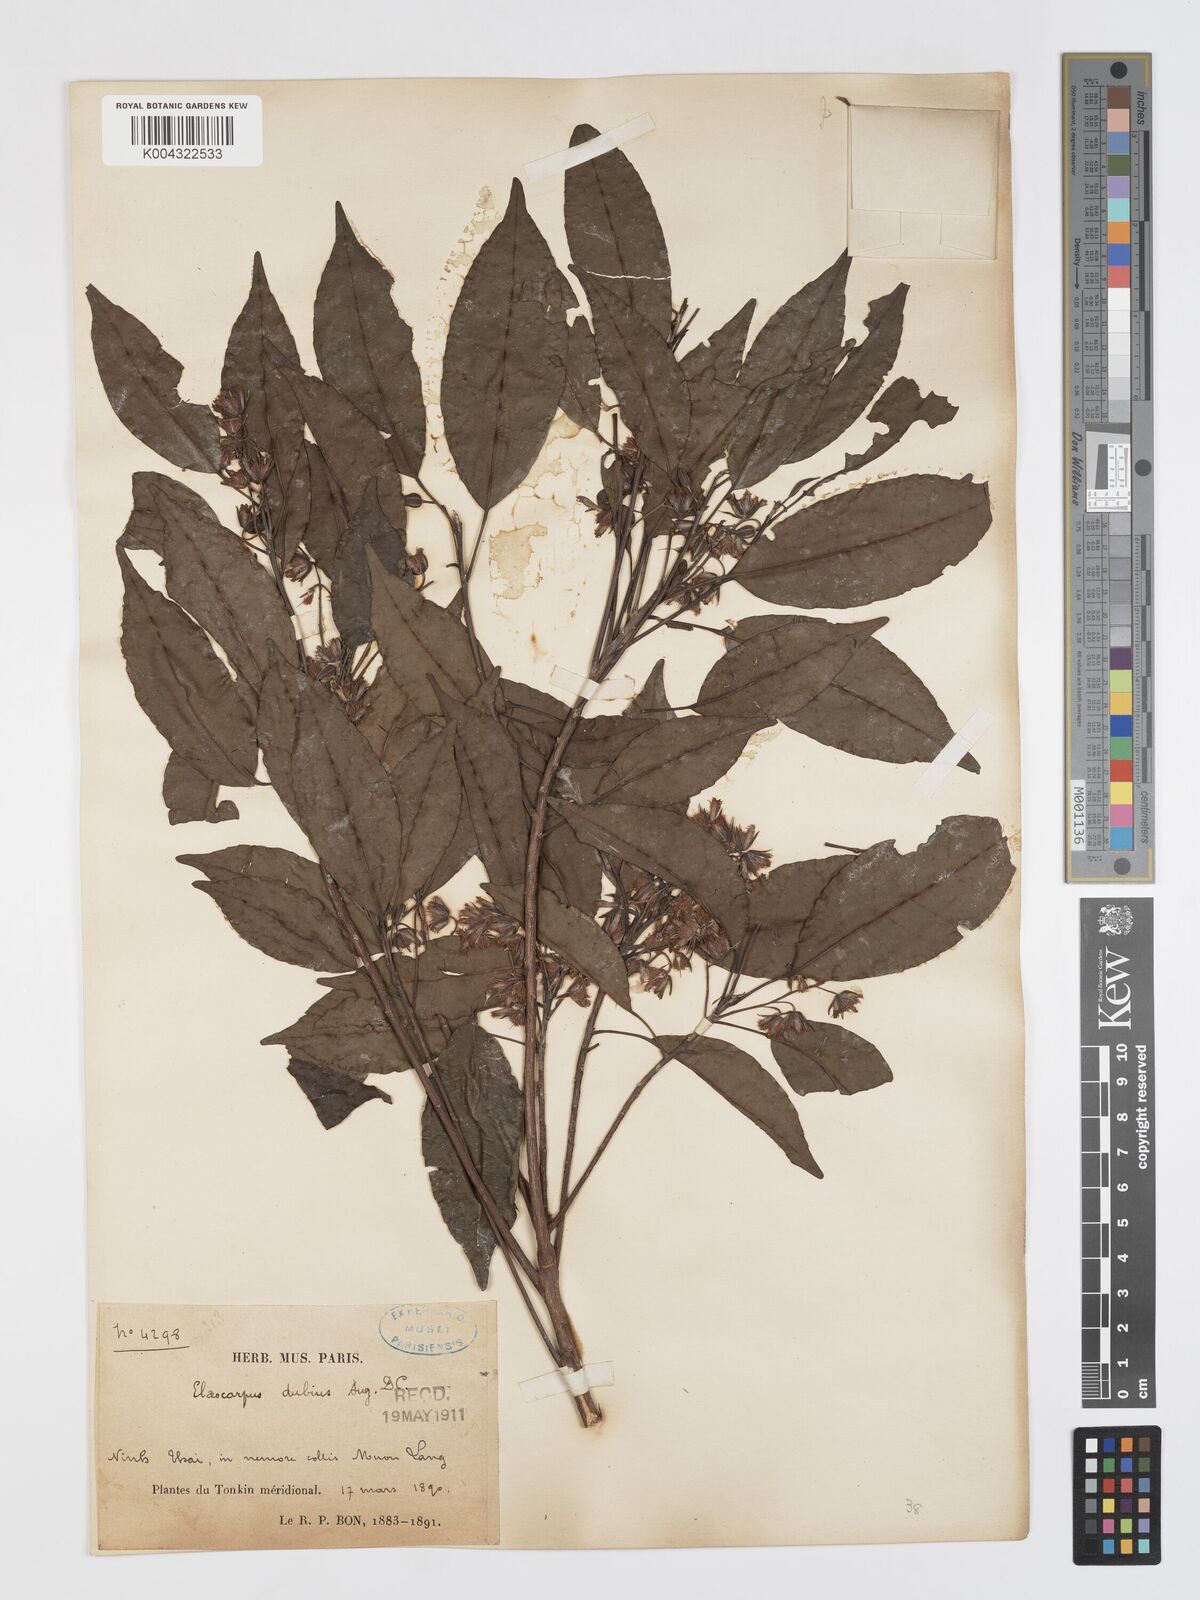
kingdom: Plantae
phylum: Tracheophyta
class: Magnoliopsida
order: Oxalidales
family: Elaeocarpaceae
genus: Elaeocarpus
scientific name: Elaeocarpus dubius
